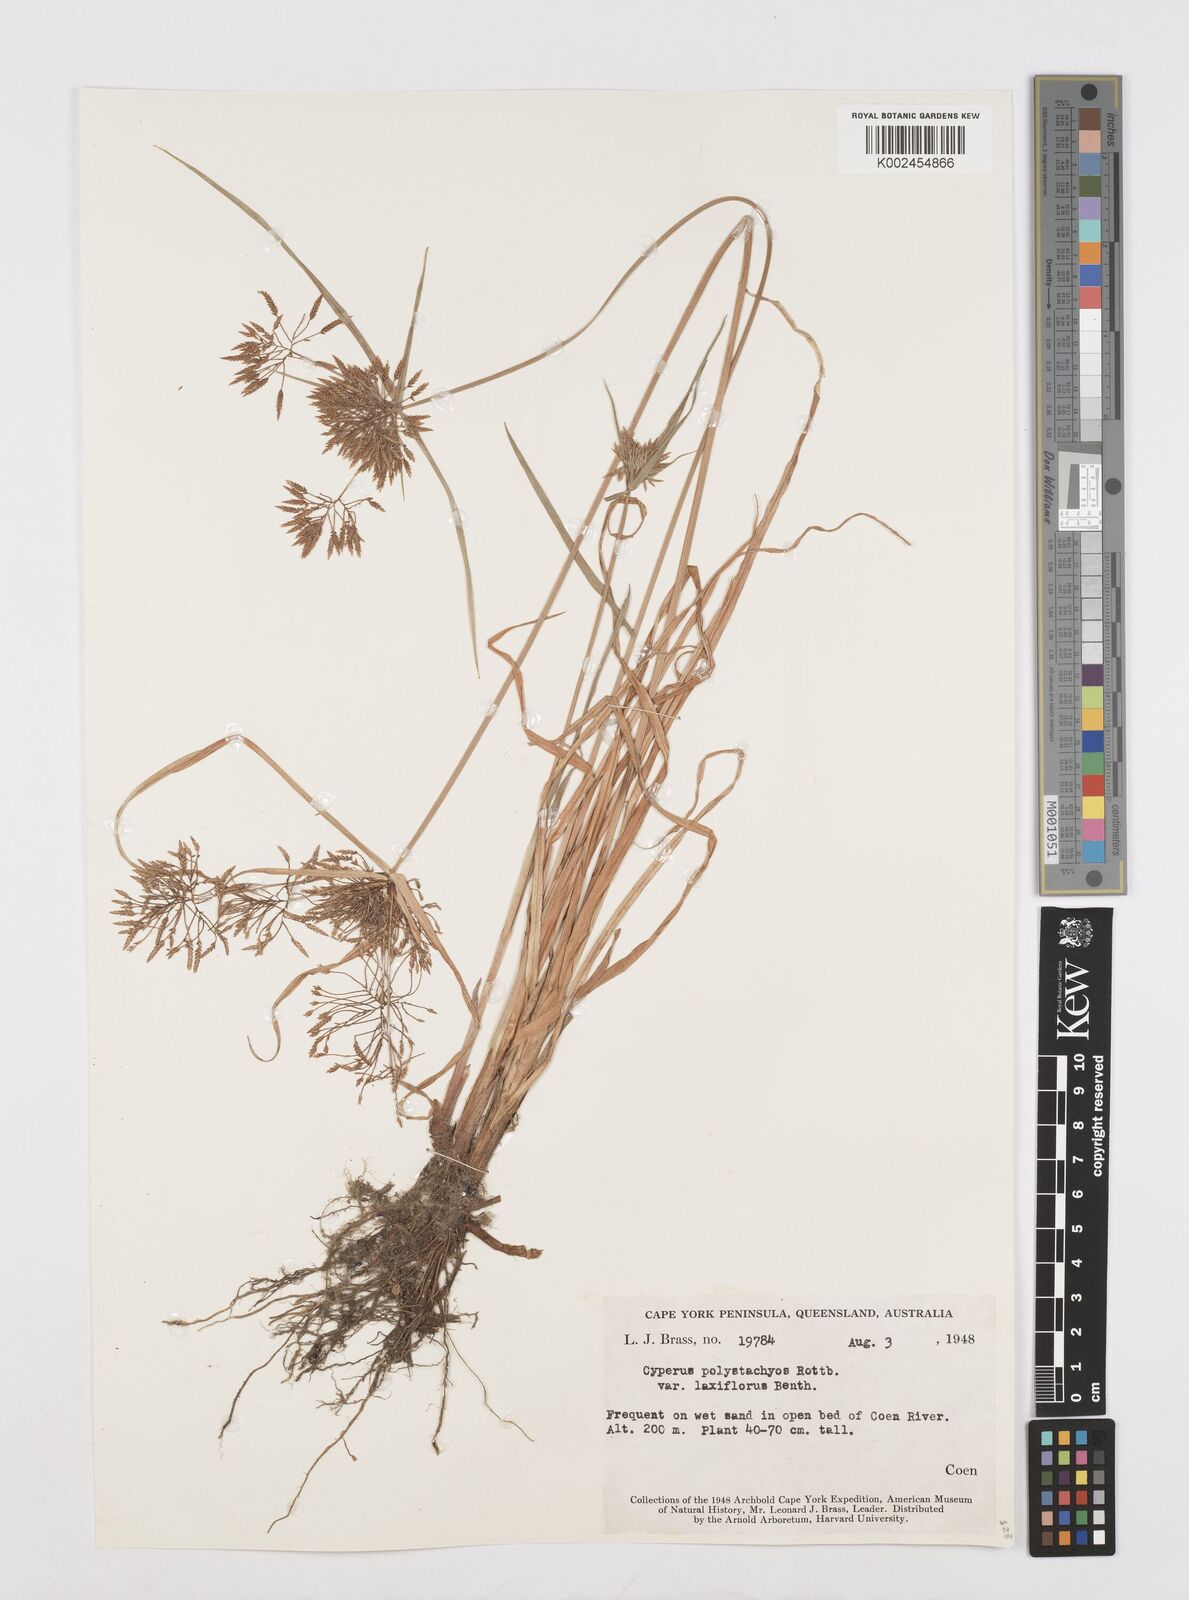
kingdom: Plantae
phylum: Tracheophyta
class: Liliopsida
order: Poales
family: Cyperaceae
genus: Cyperus
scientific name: Cyperus polystachyos
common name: Bunchy flat sedge
